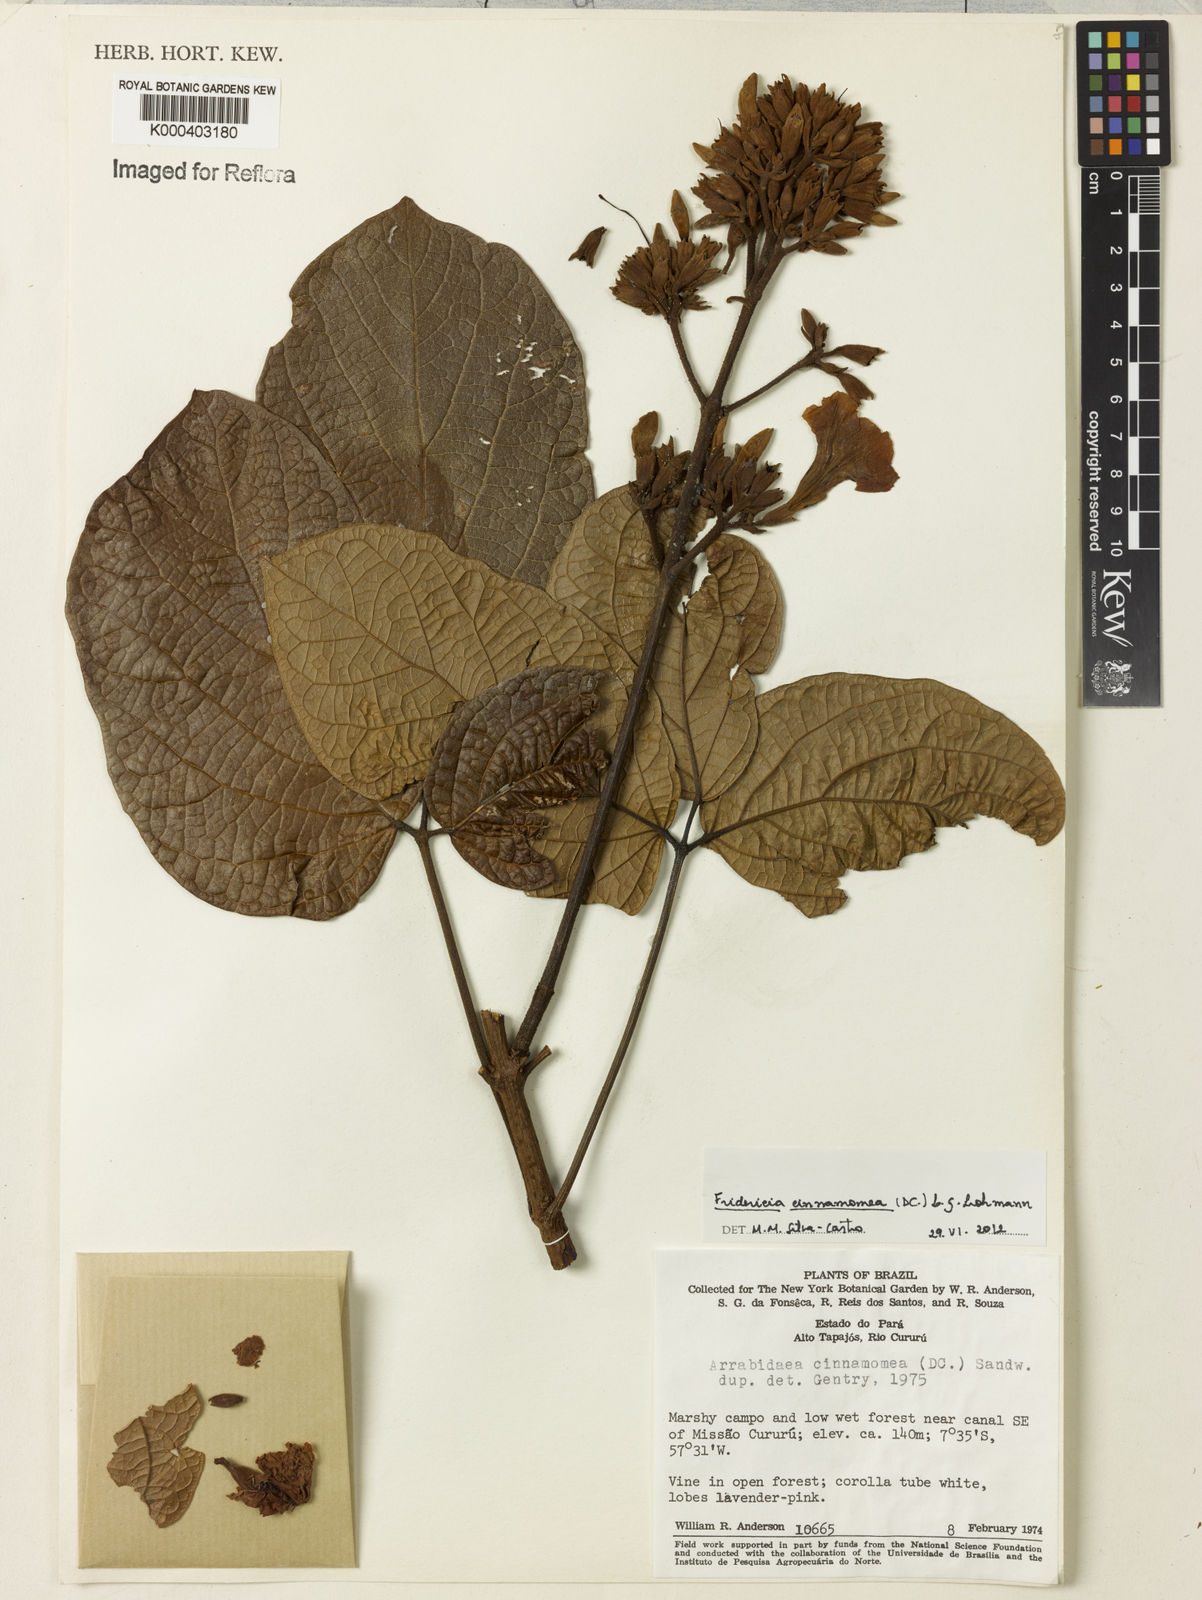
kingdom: Plantae
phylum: Tracheophyta
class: Magnoliopsida
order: Lamiales
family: Bignoniaceae
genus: Fridericia
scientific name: Fridericia cinnamomea
